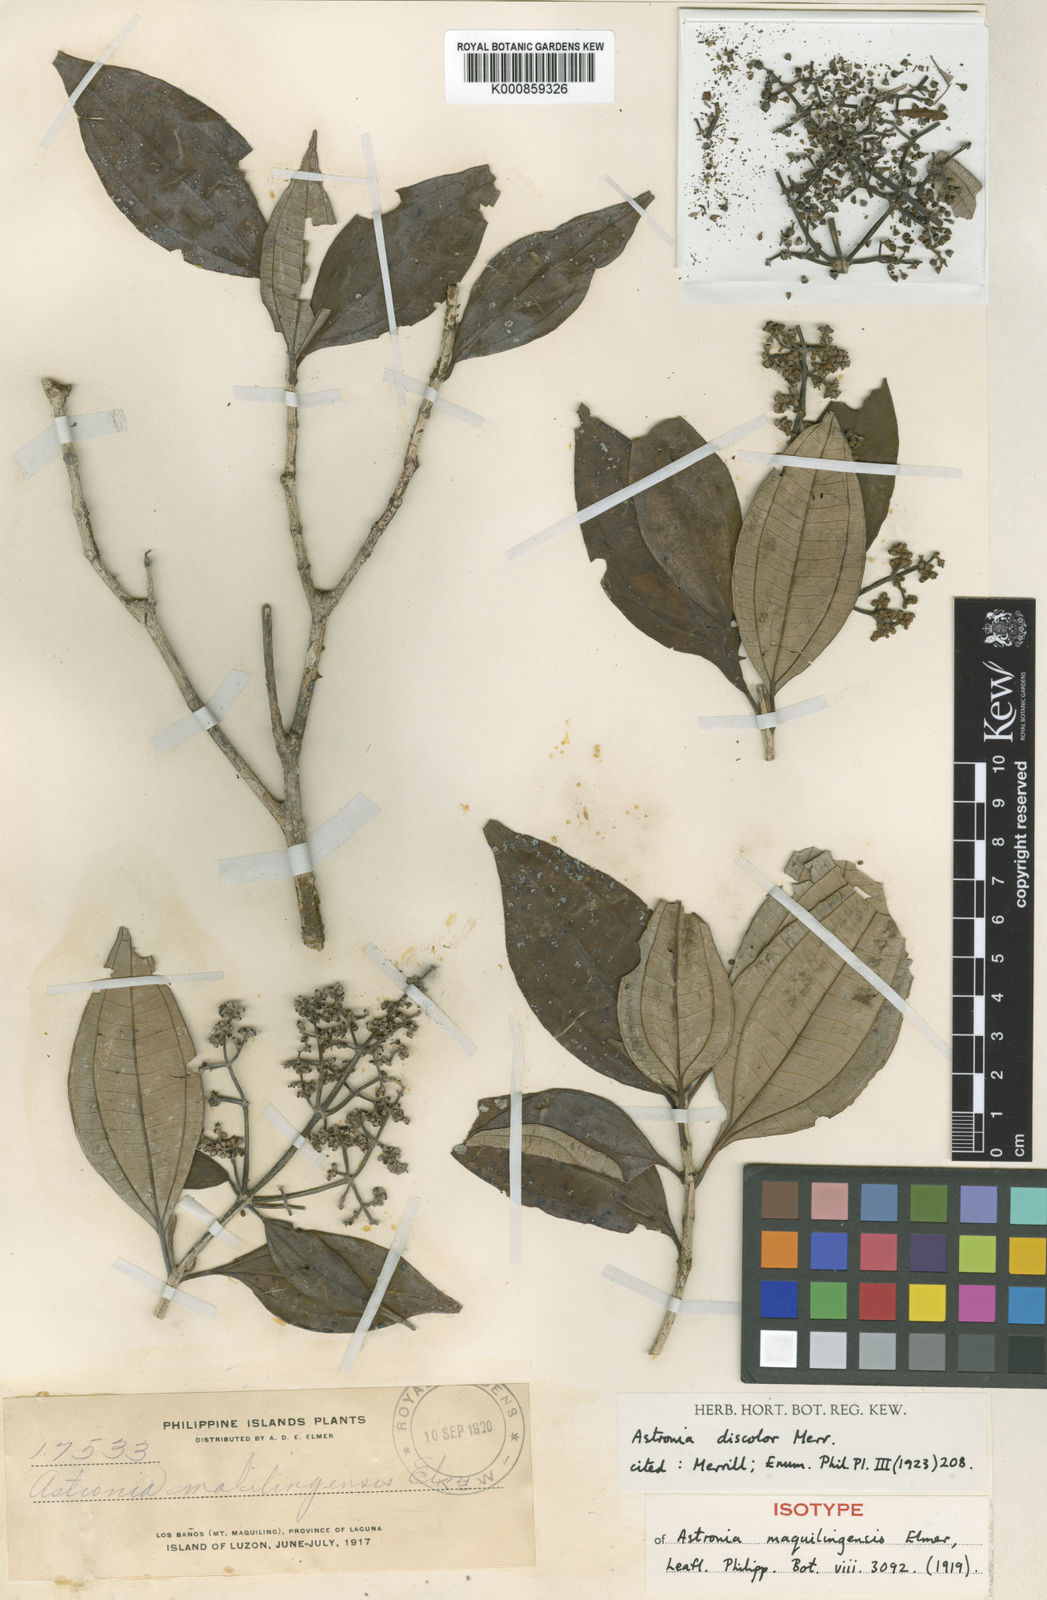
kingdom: Plantae
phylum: Tracheophyta
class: Magnoliopsida
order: Myrtales
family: Melastomataceae
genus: Astronia
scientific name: Astronia cumingiana
